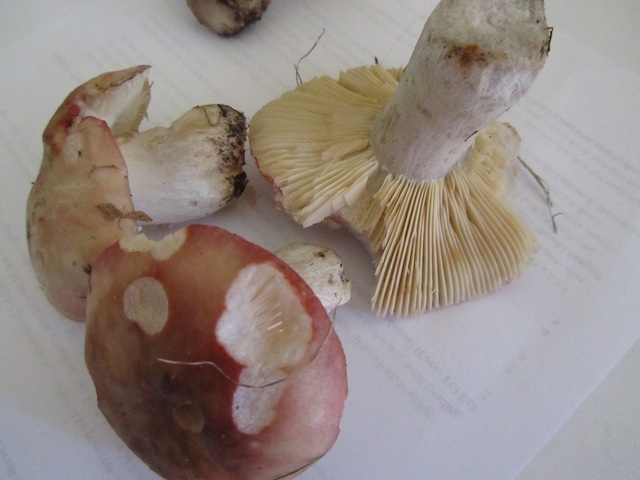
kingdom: Fungi
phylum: Basidiomycota
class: Agaricomycetes
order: Russulales
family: Russulaceae
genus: Russula
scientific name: Russula depallens
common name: falmende skørhat
